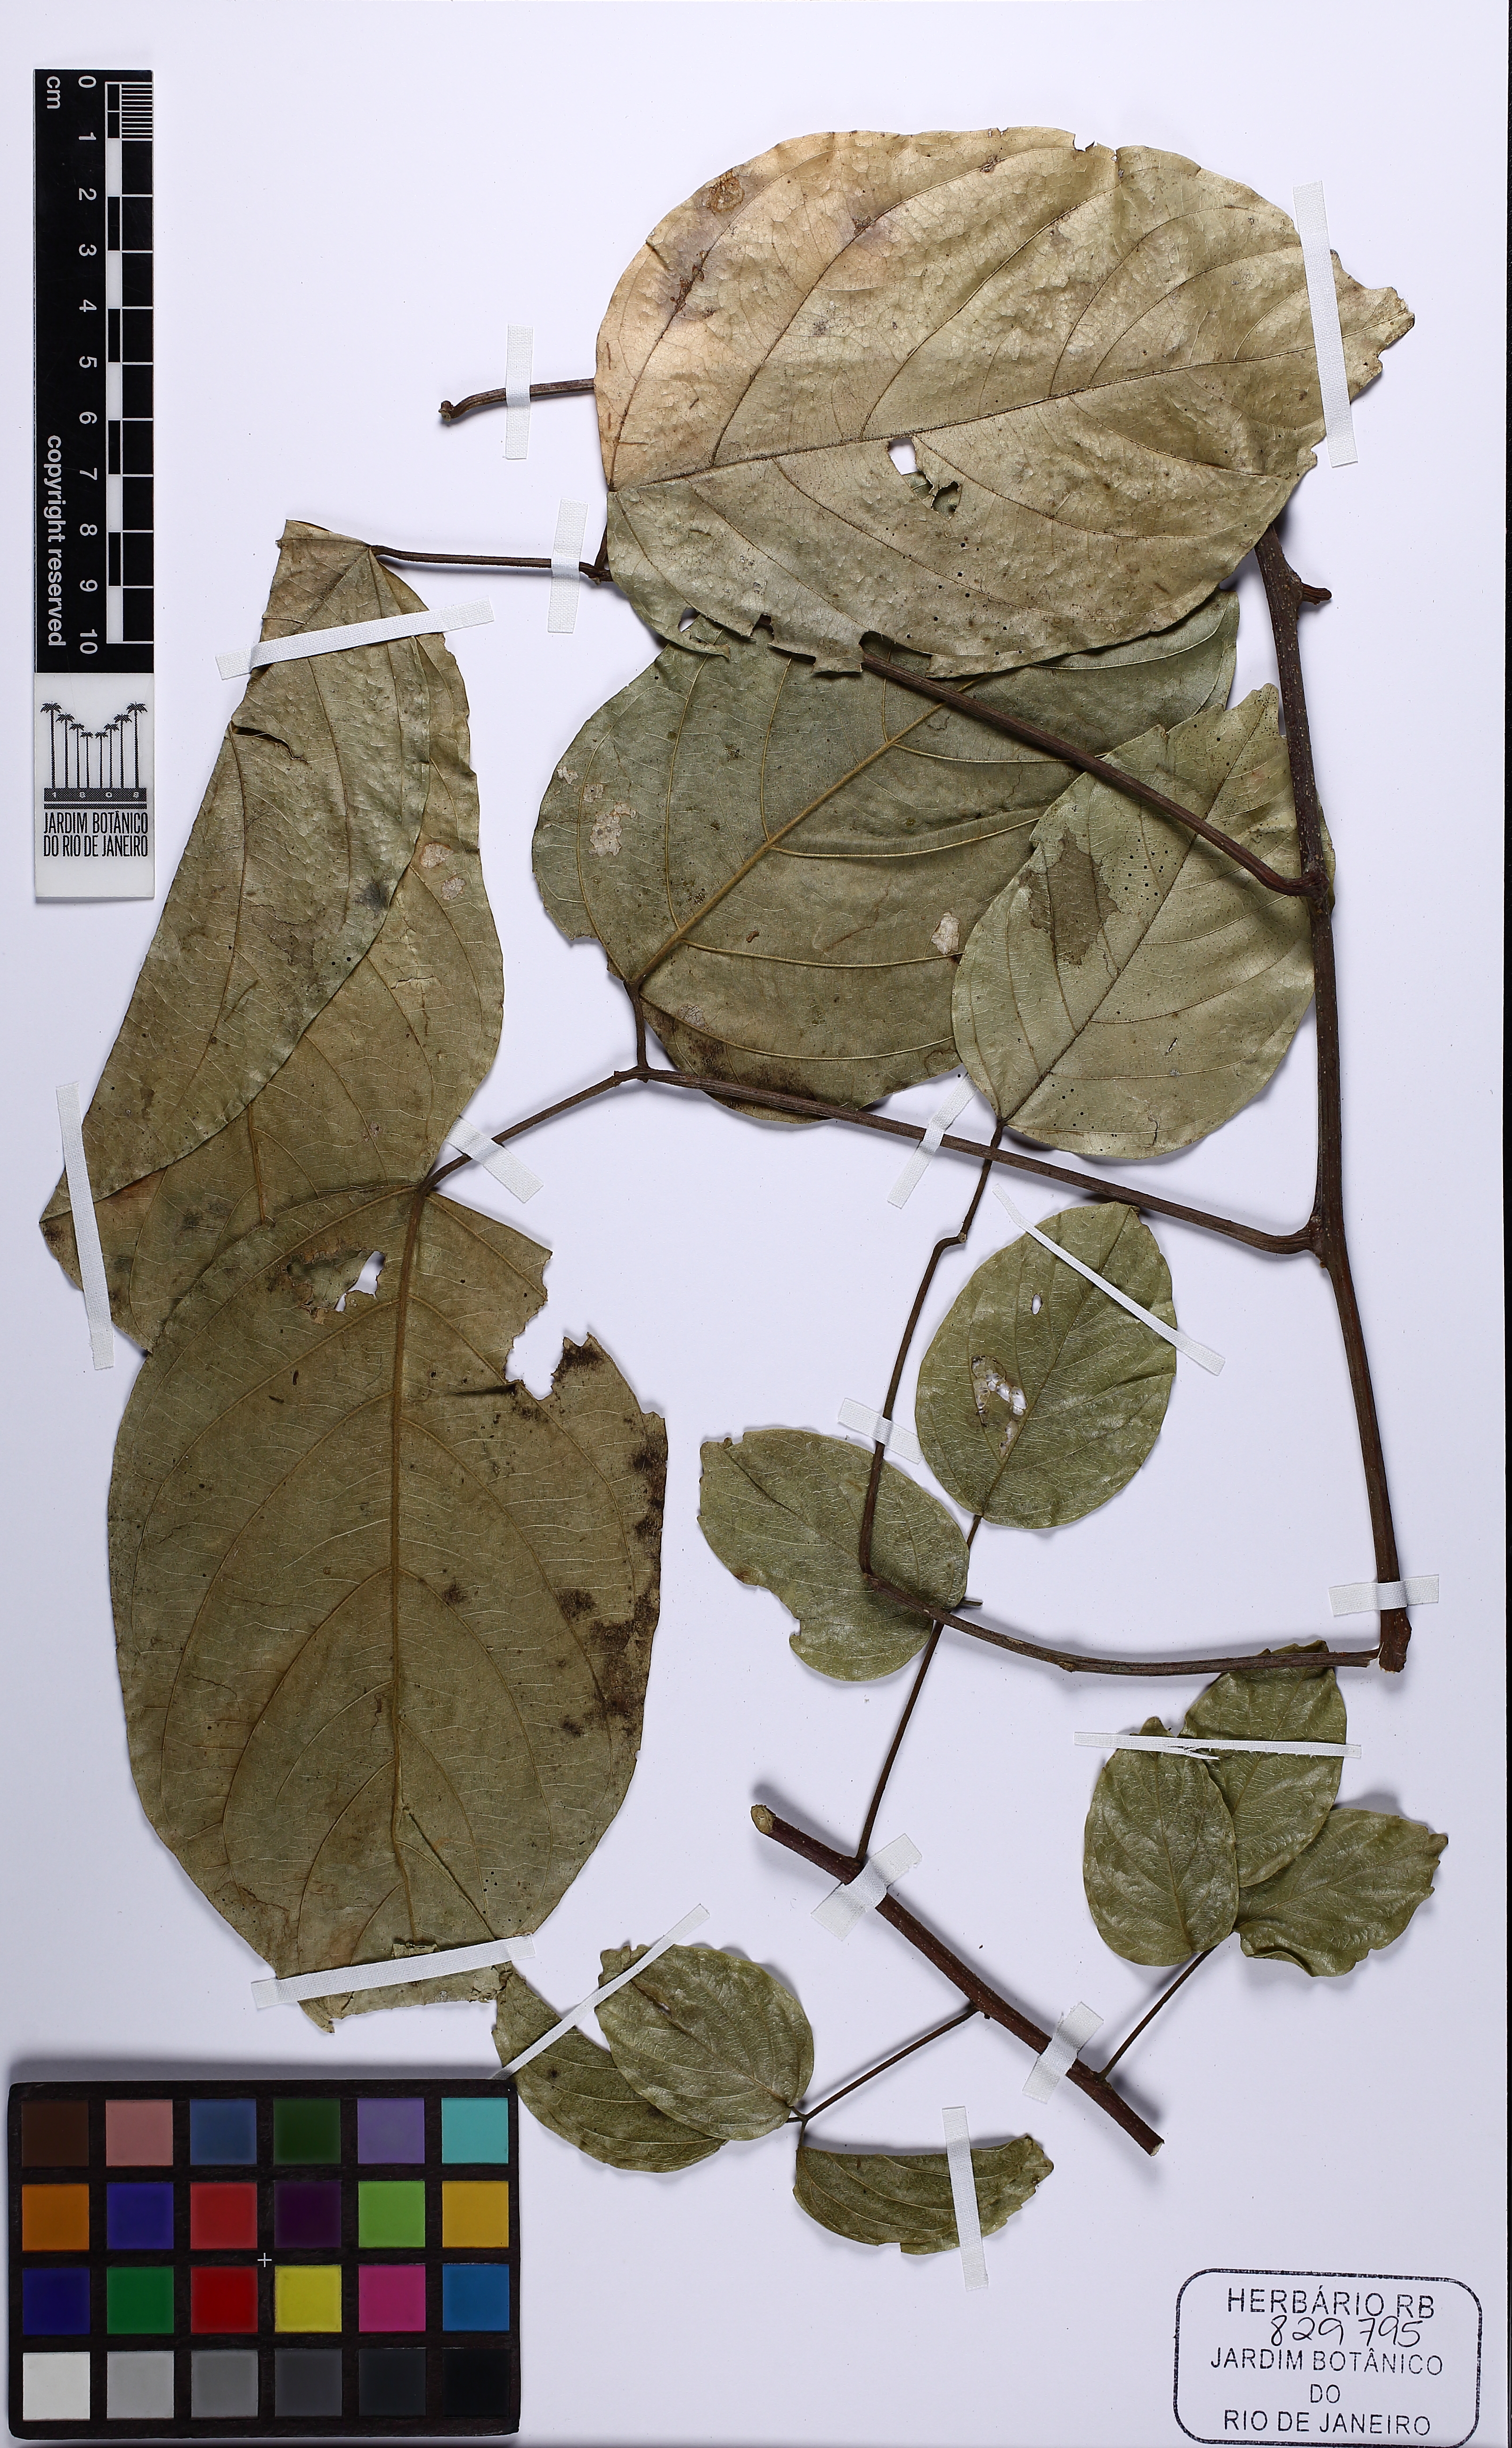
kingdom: Plantae
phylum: Tracheophyta
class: Magnoliopsida
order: Sapindales
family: Sapindaceae
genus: Thinouia
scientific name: Thinouia
